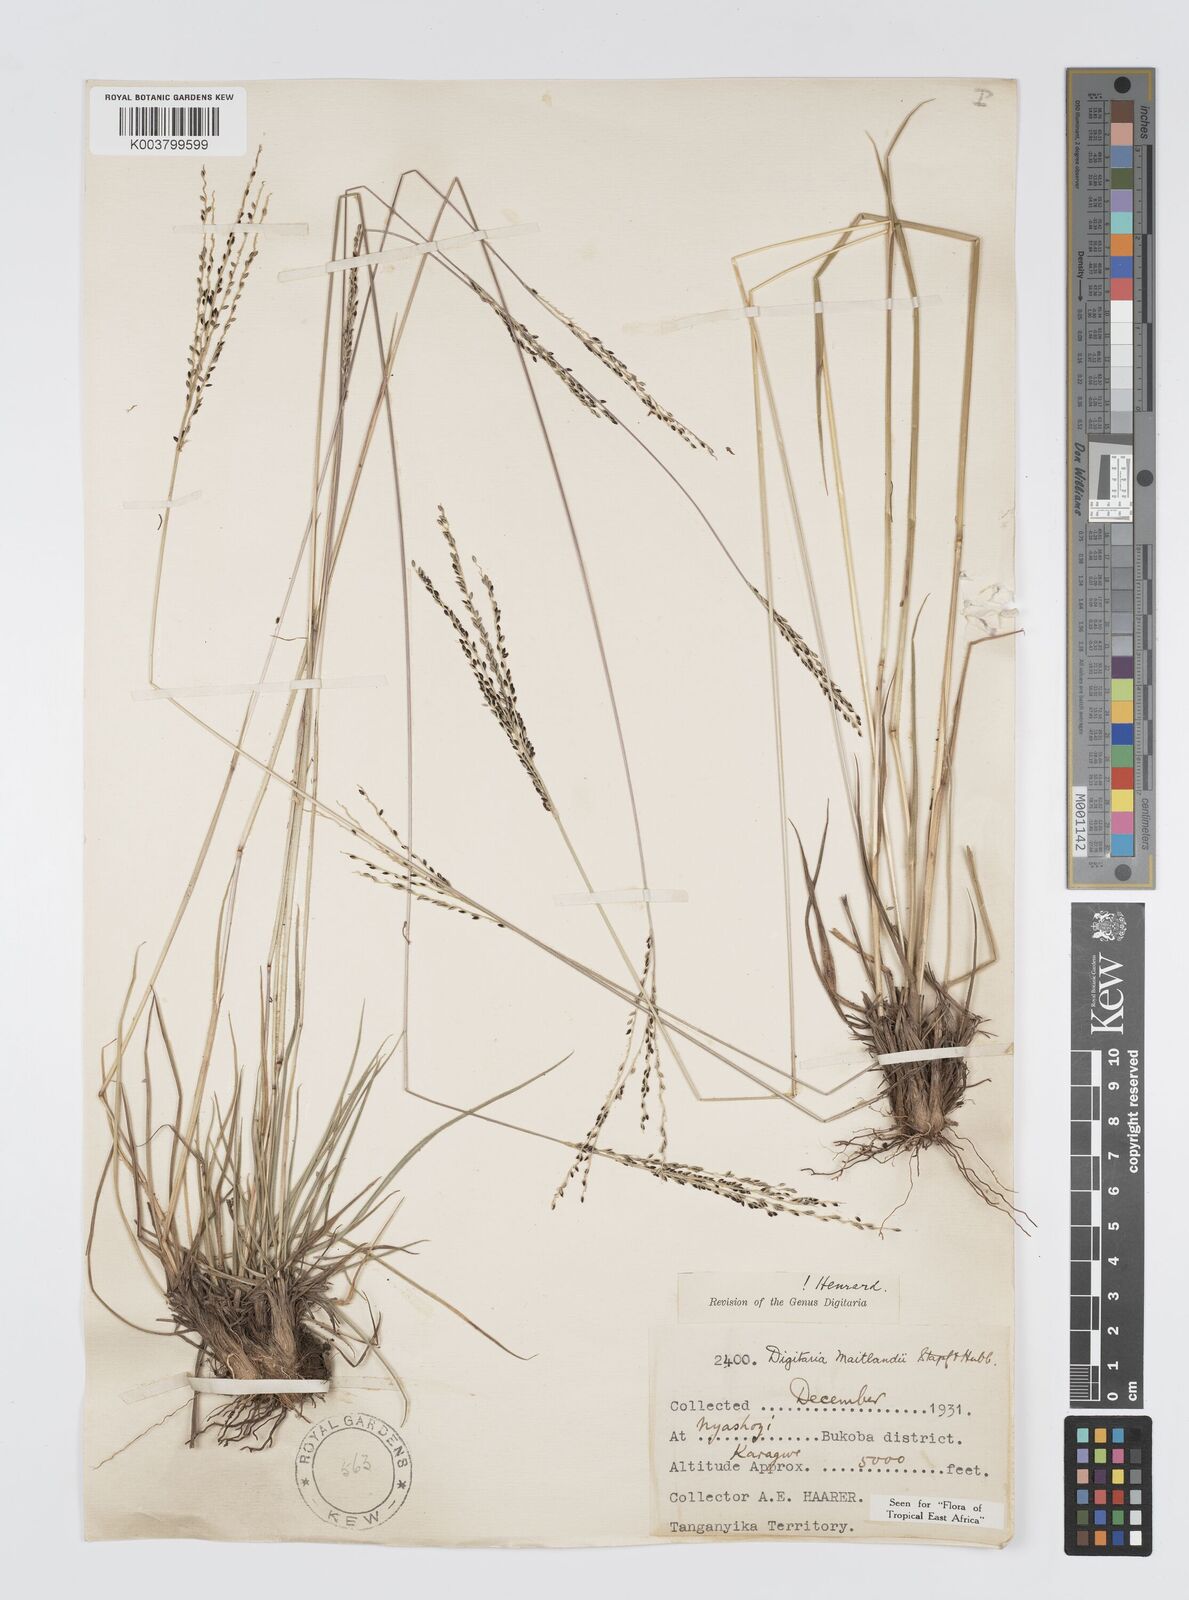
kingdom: Plantae
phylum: Tracheophyta
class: Liliopsida
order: Poales
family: Poaceae
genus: Digitaria
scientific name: Digitaria maitlandii
